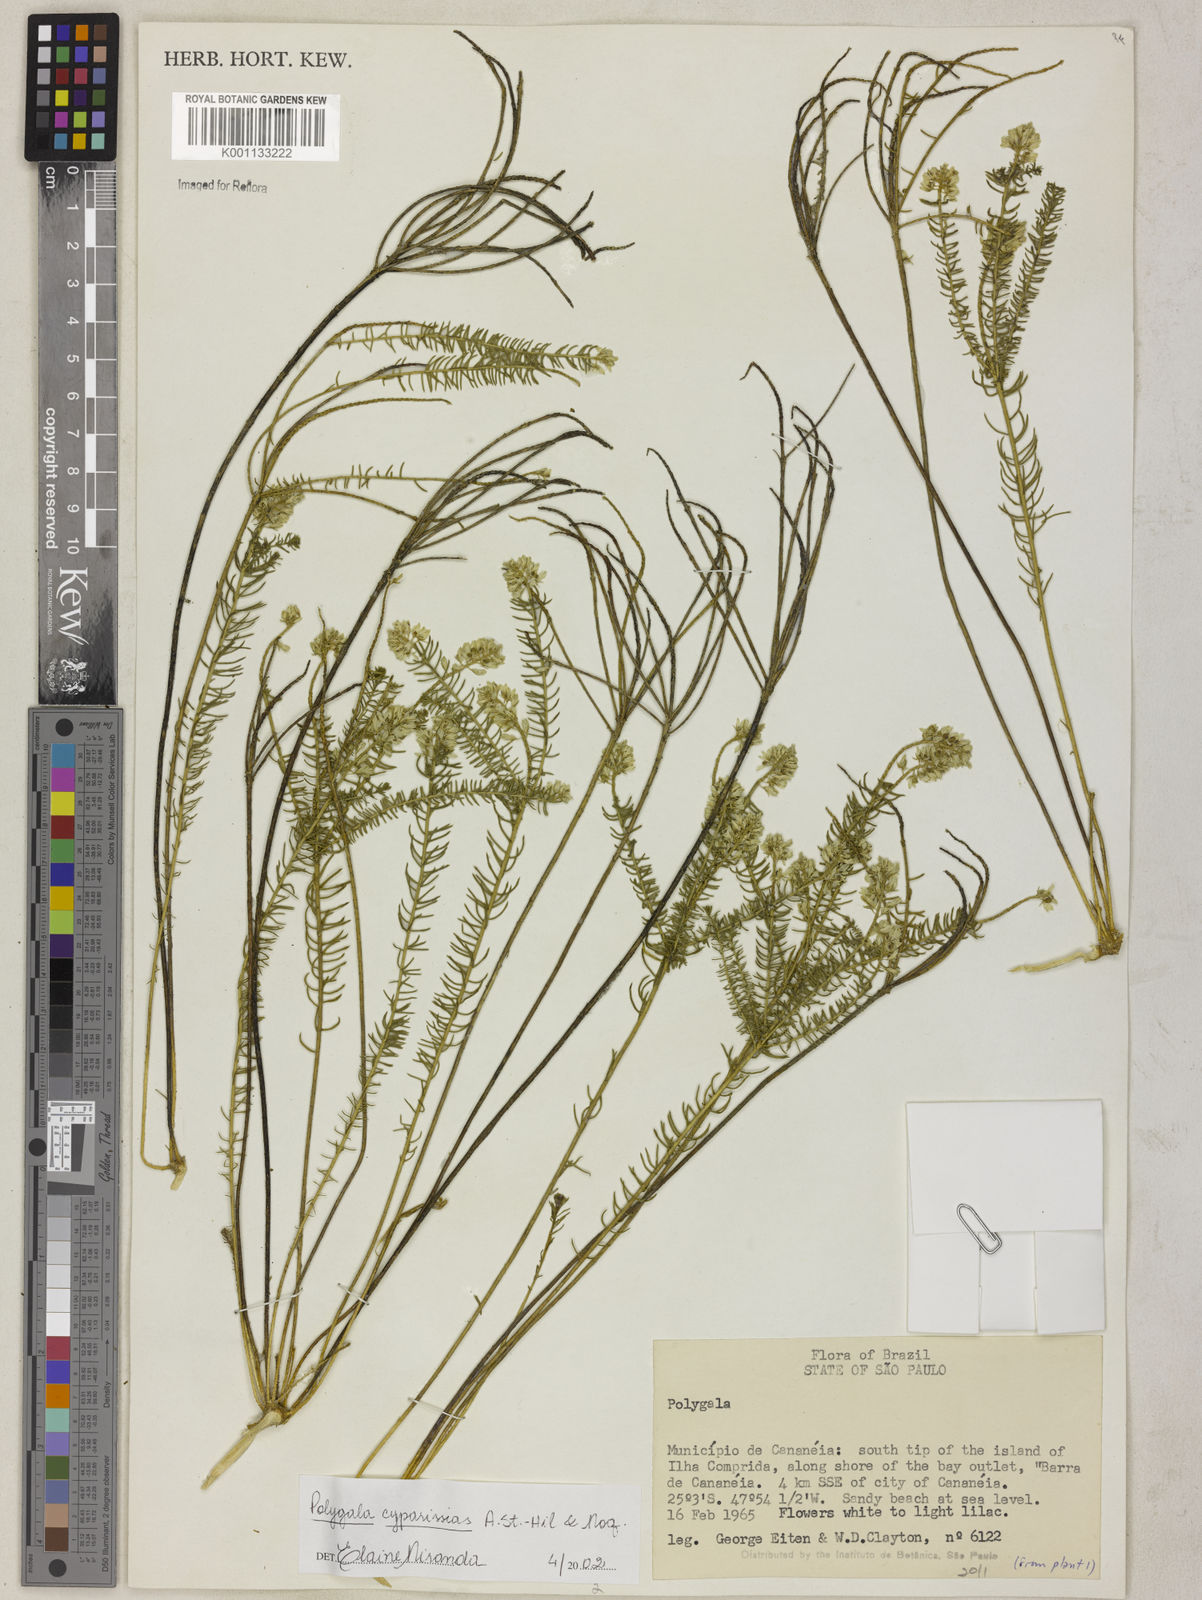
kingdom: Plantae
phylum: Tracheophyta
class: Magnoliopsida
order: Fabales
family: Polygalaceae
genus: Polygala
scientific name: Polygala cyparissias
